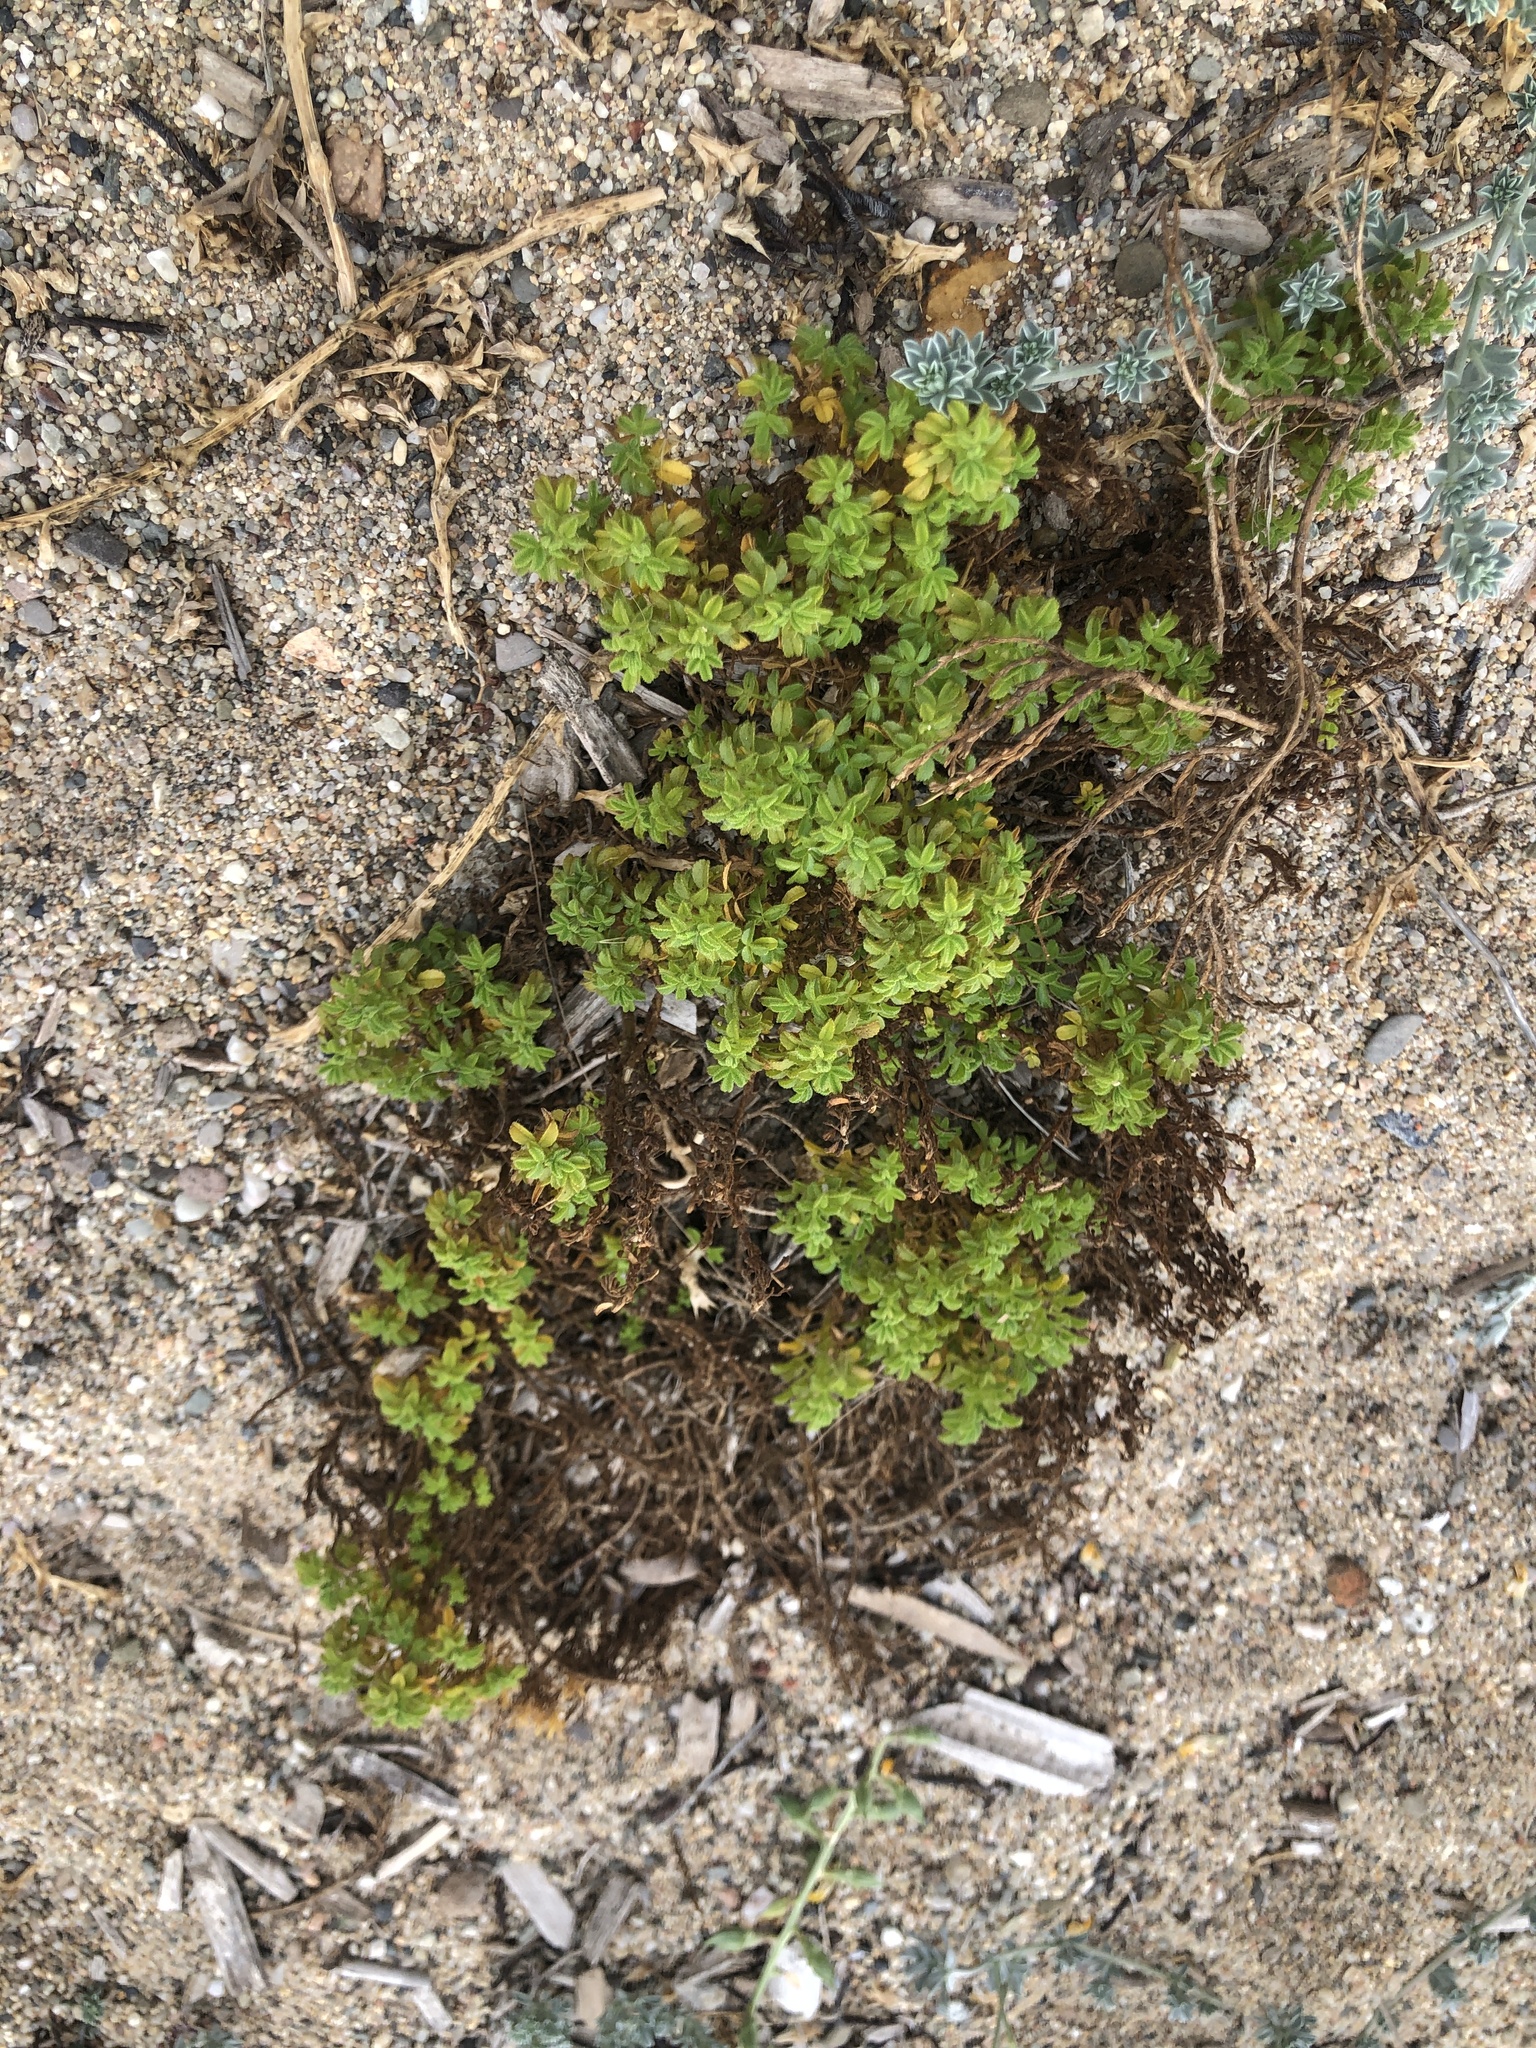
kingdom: Plantae
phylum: Tracheophyta
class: Magnoliopsida
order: Fabales
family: Fabaceae
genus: Ononis
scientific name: Ononis natrix
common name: Yellow restharrow
